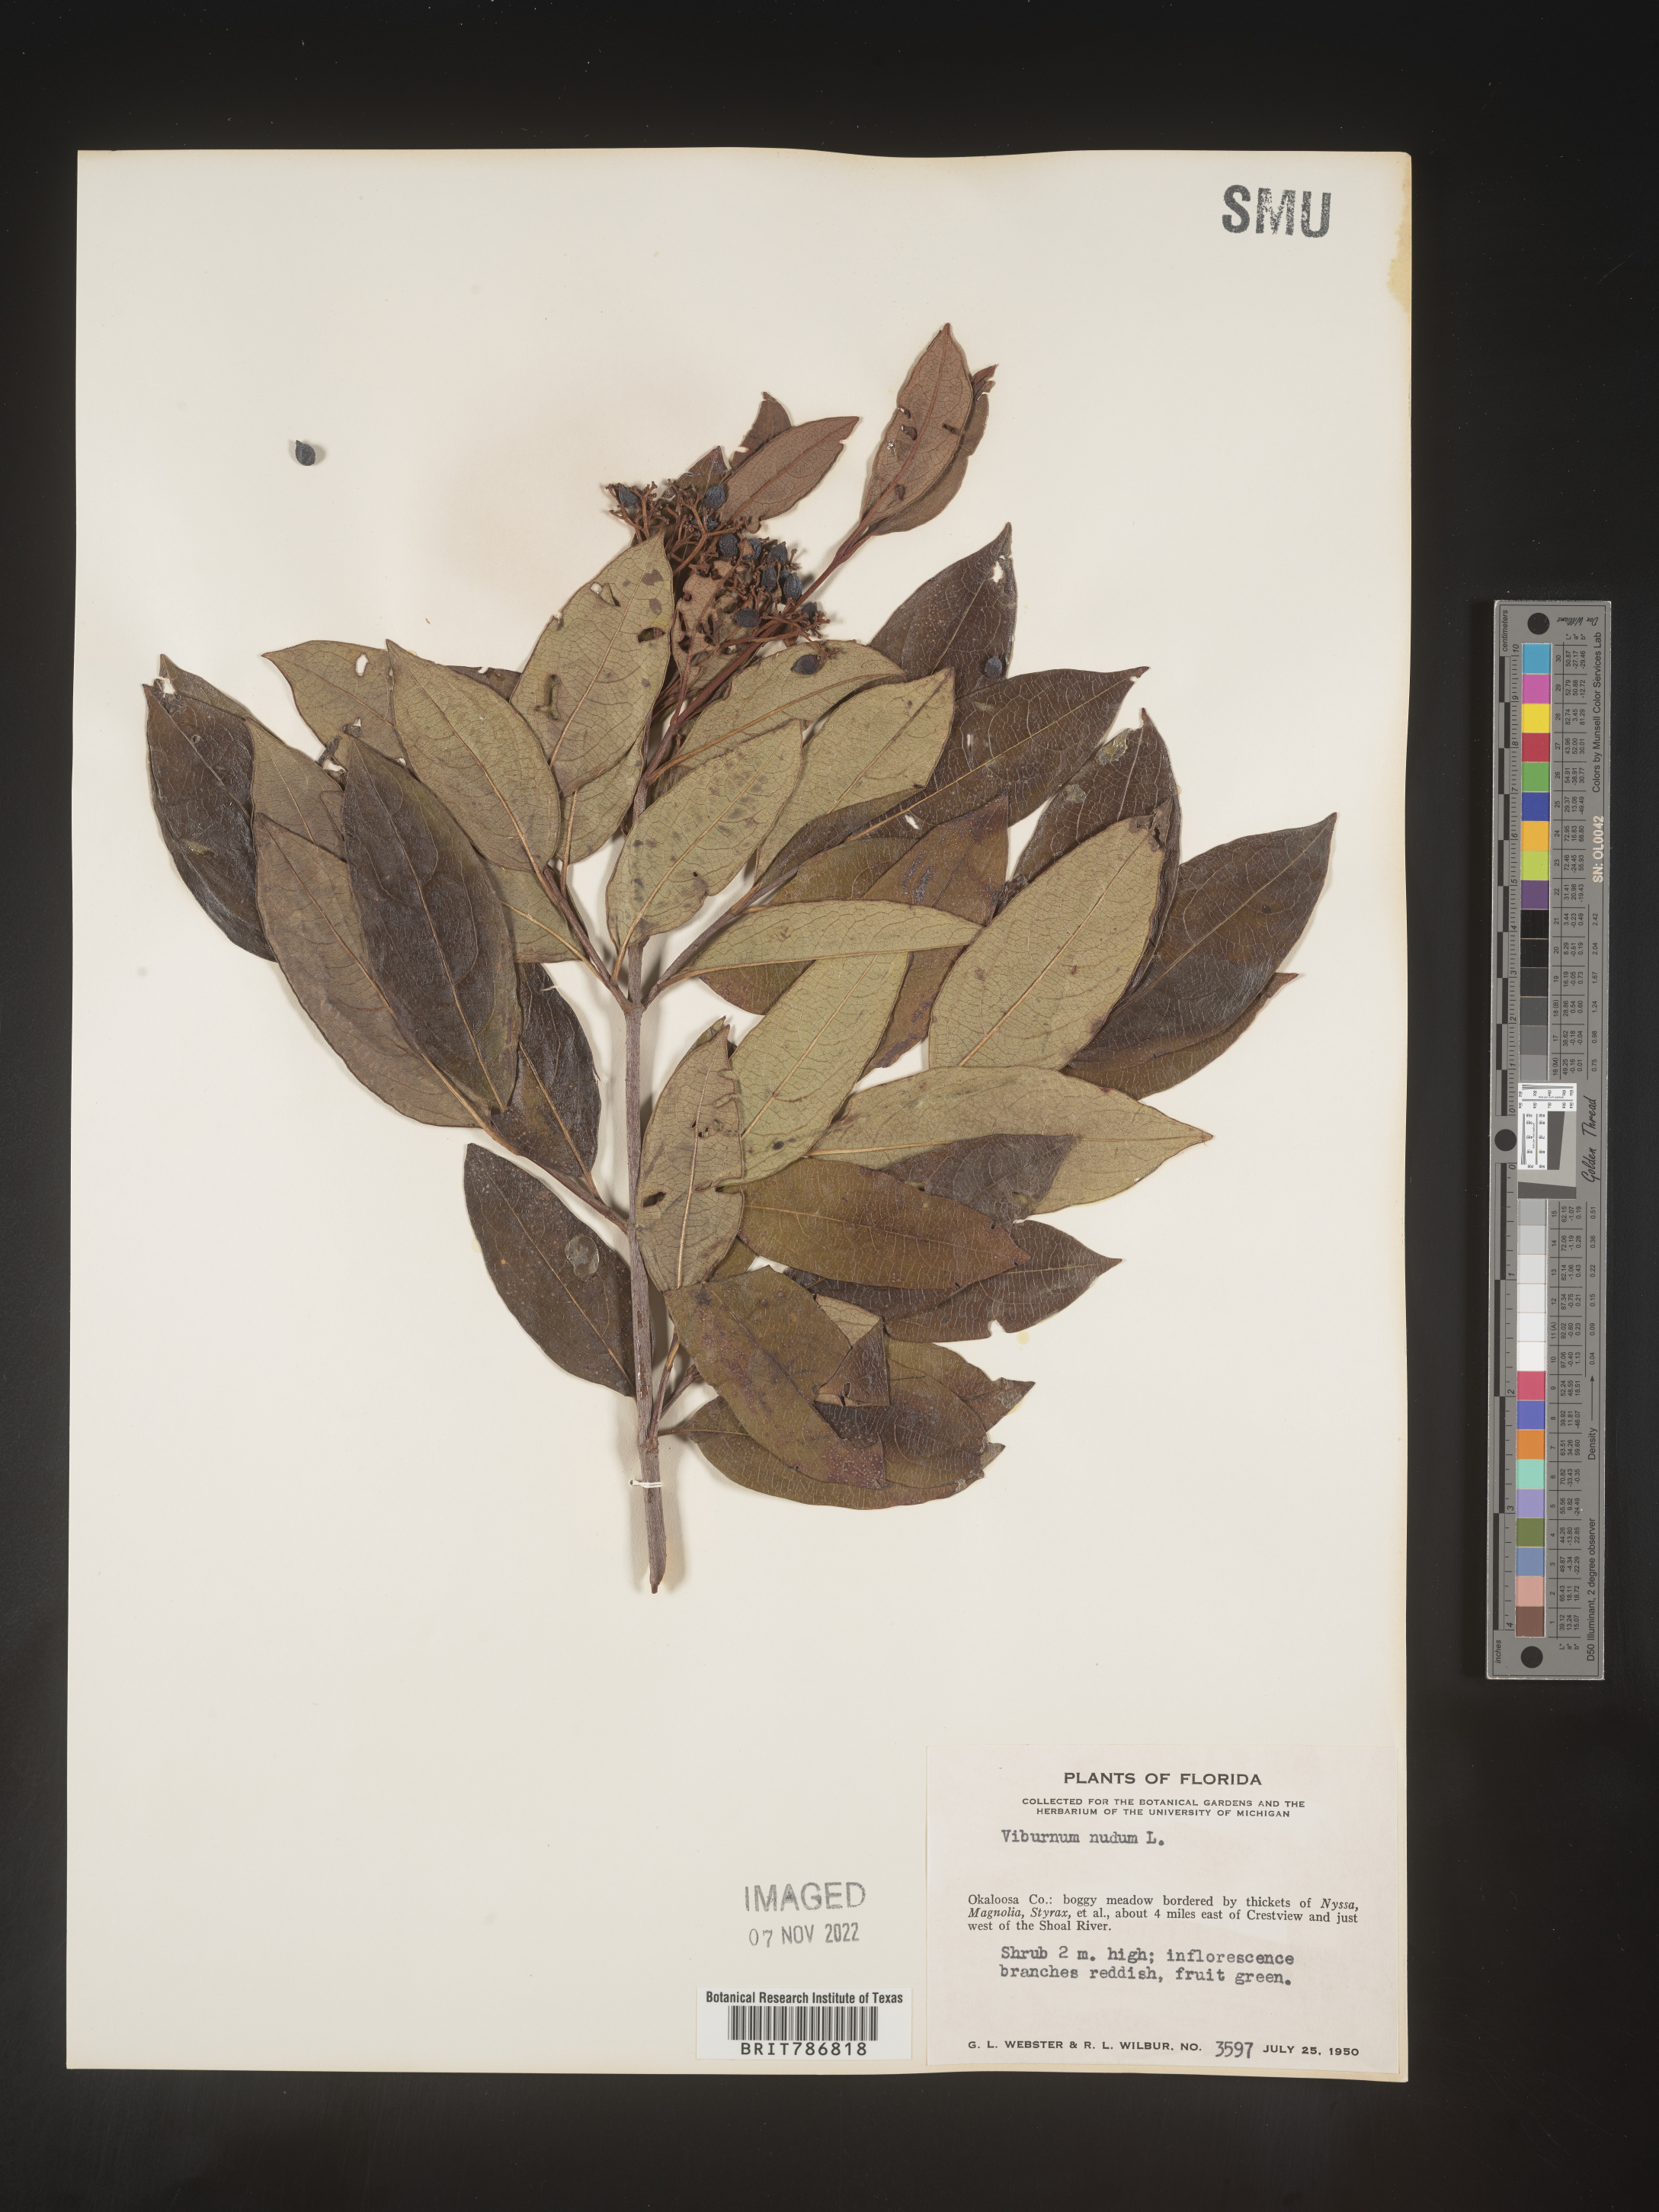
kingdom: Plantae
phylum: Tracheophyta
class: Magnoliopsida
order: Dipsacales
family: Viburnaceae
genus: Viburnum
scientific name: Viburnum nudum
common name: Possum haw
